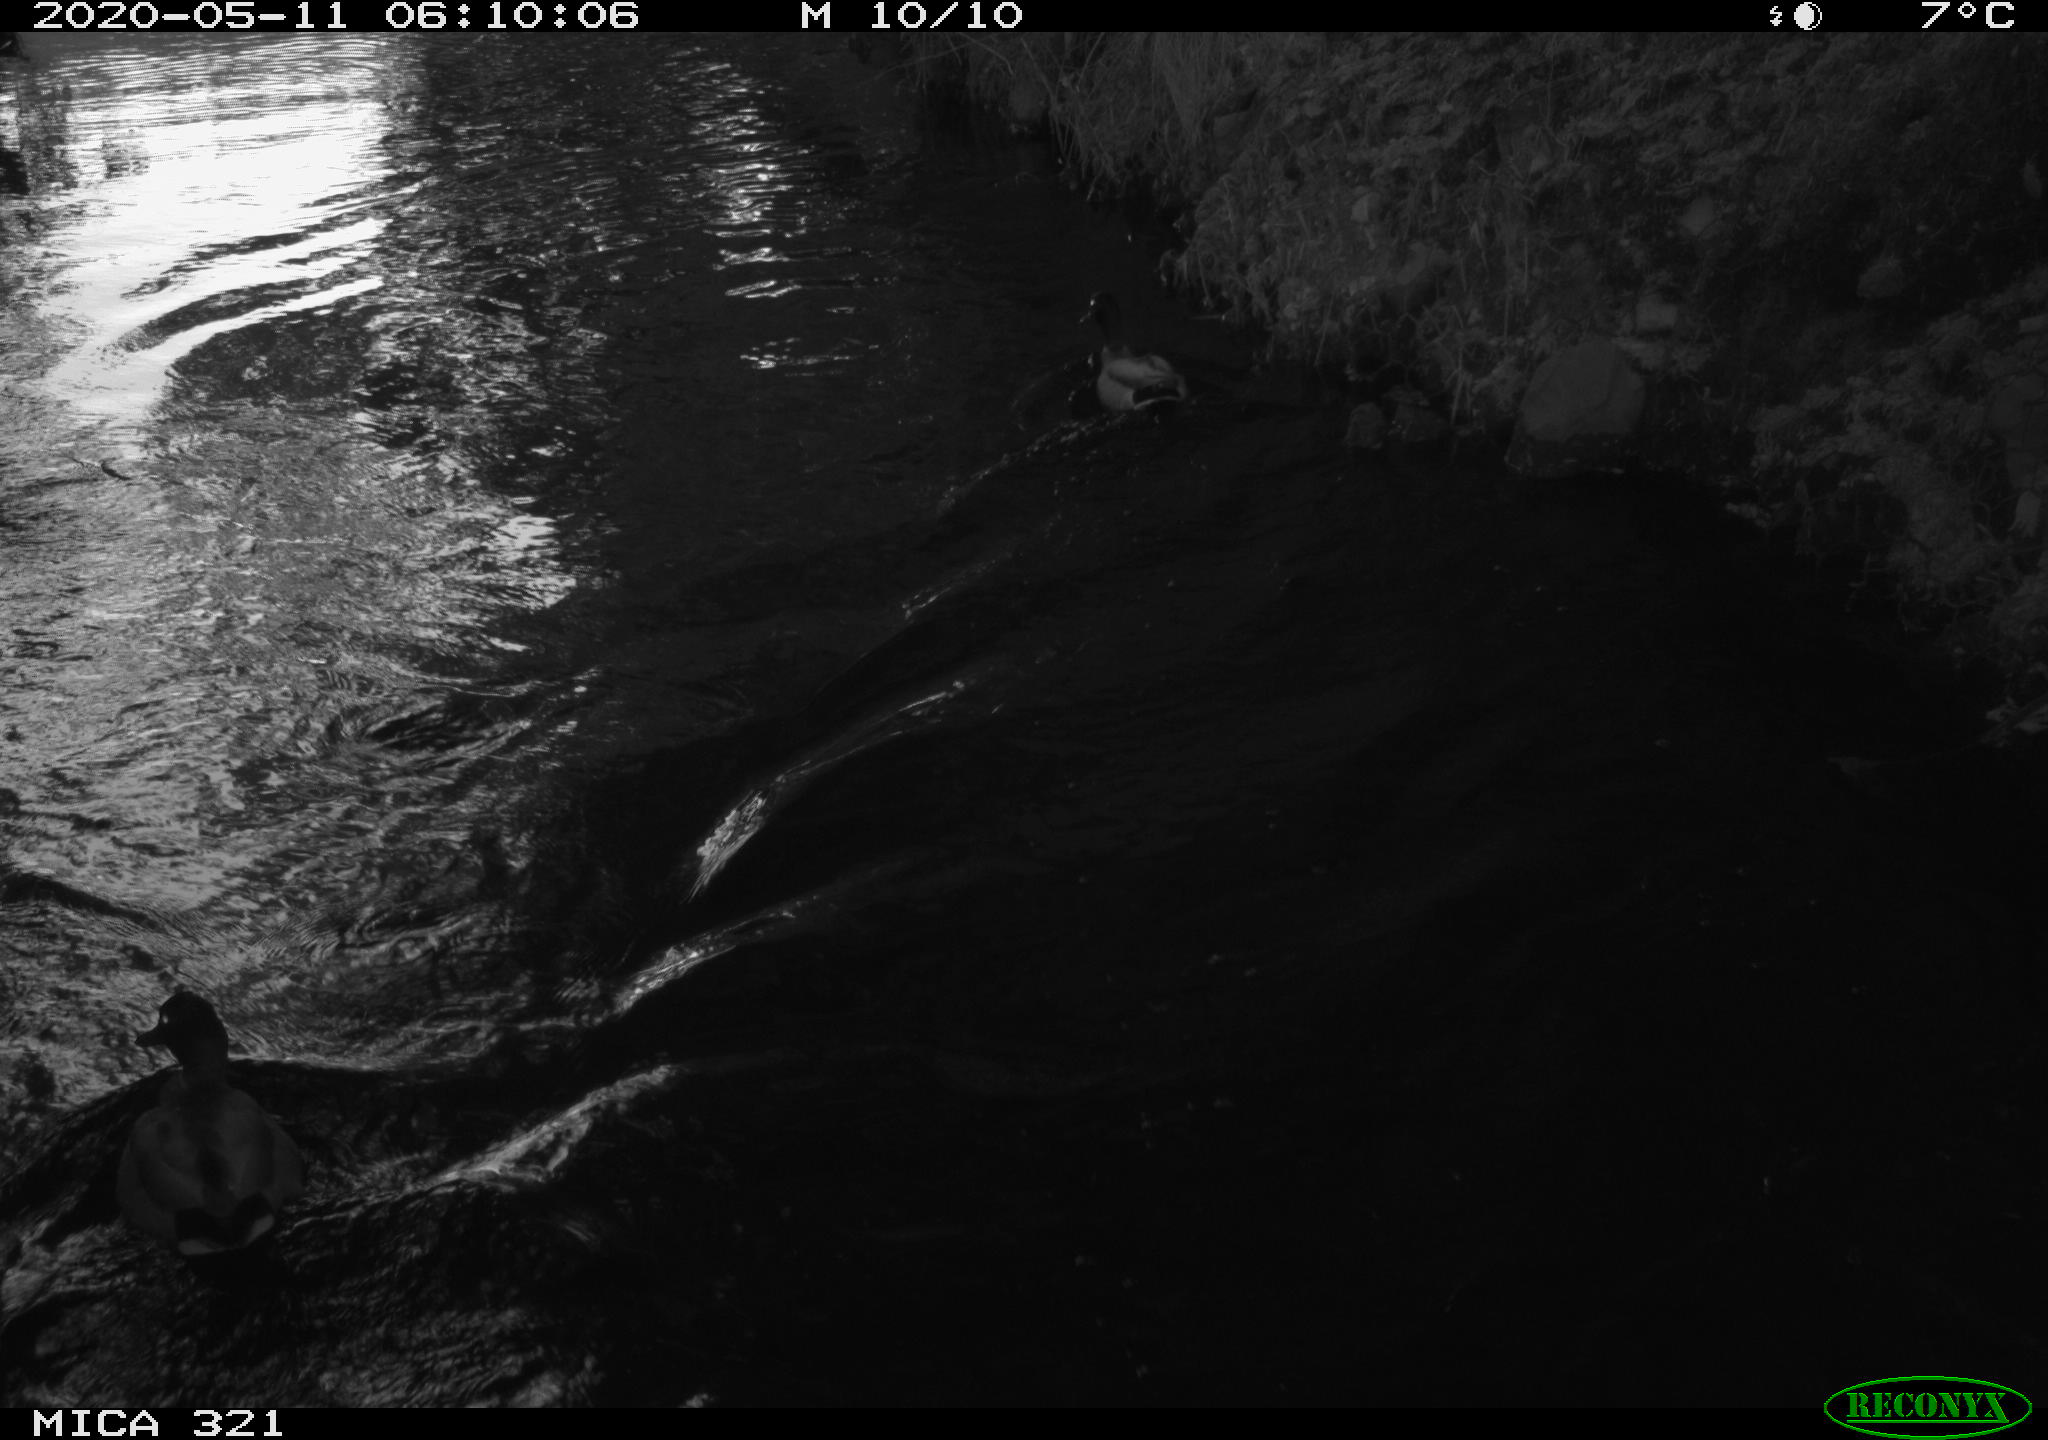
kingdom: Animalia
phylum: Chordata
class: Aves
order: Anseriformes
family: Anatidae
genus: Anas
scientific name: Anas platyrhynchos
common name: Mallard
